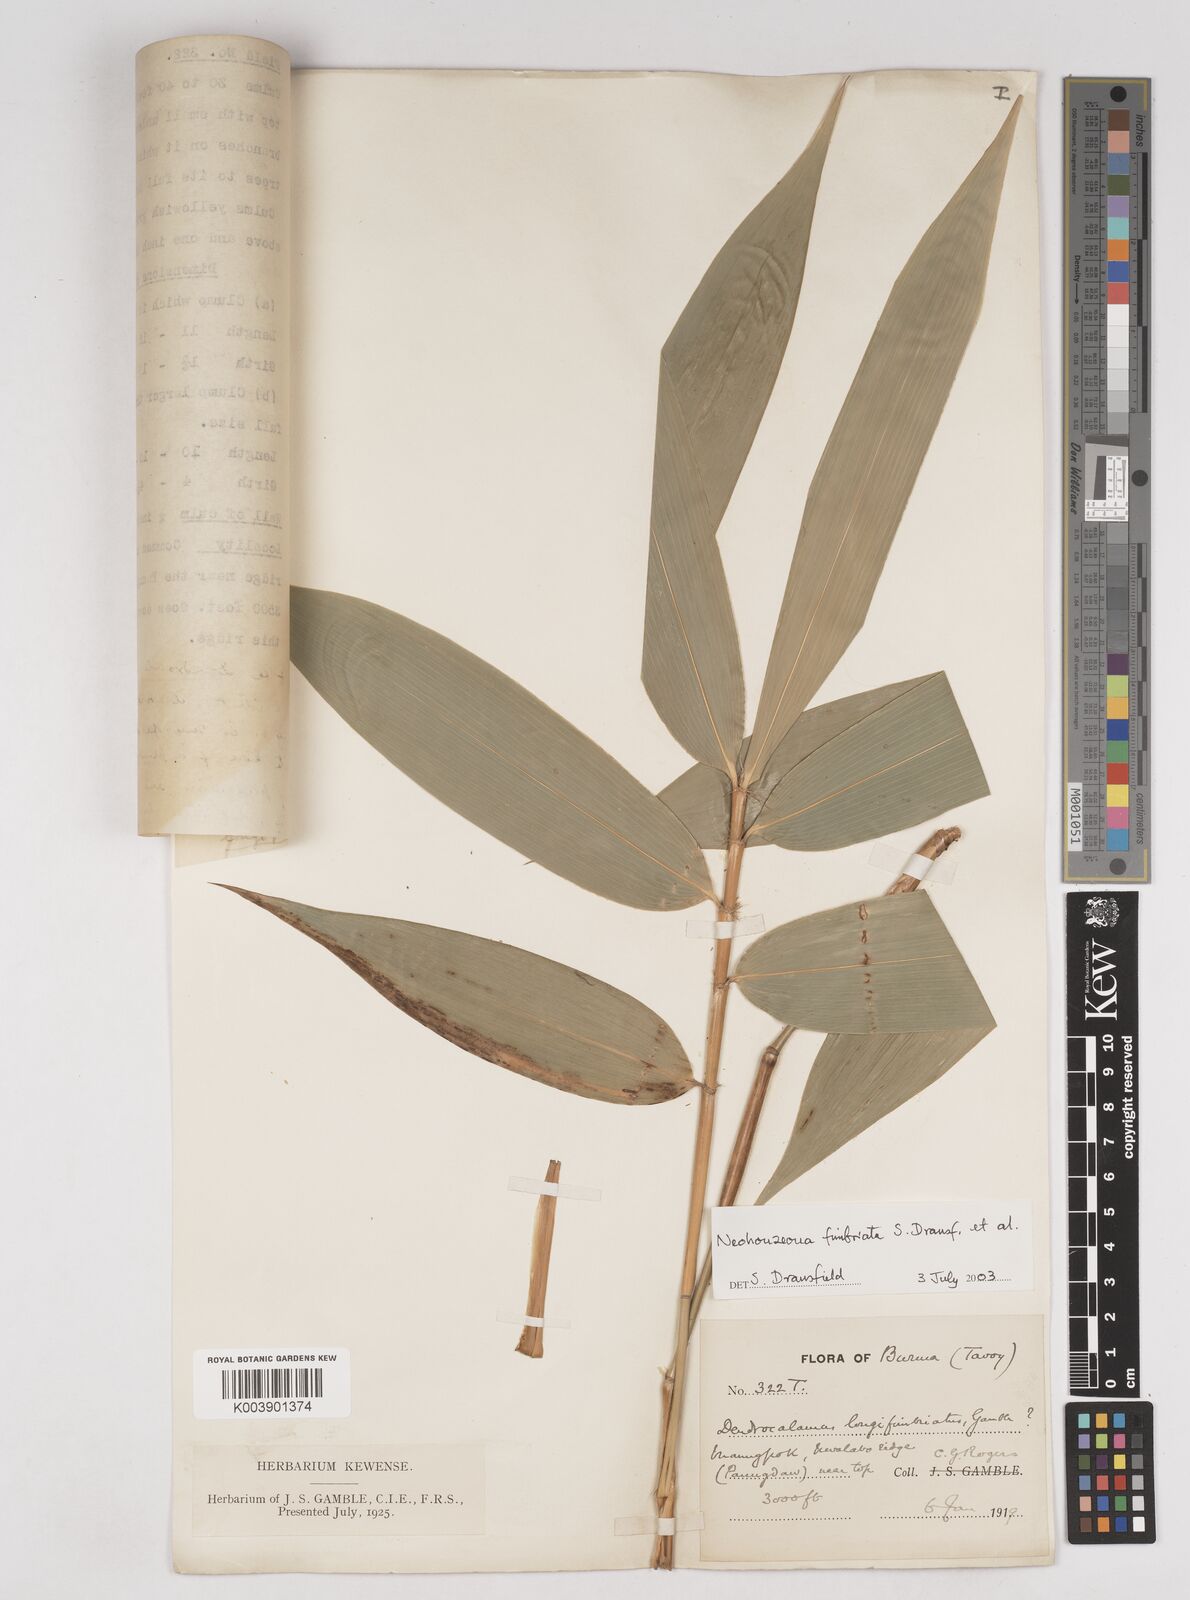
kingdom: Plantae
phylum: Tracheophyta
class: Liliopsida
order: Poales
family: Poaceae
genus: Schizostachyum
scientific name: Schizostachyum
